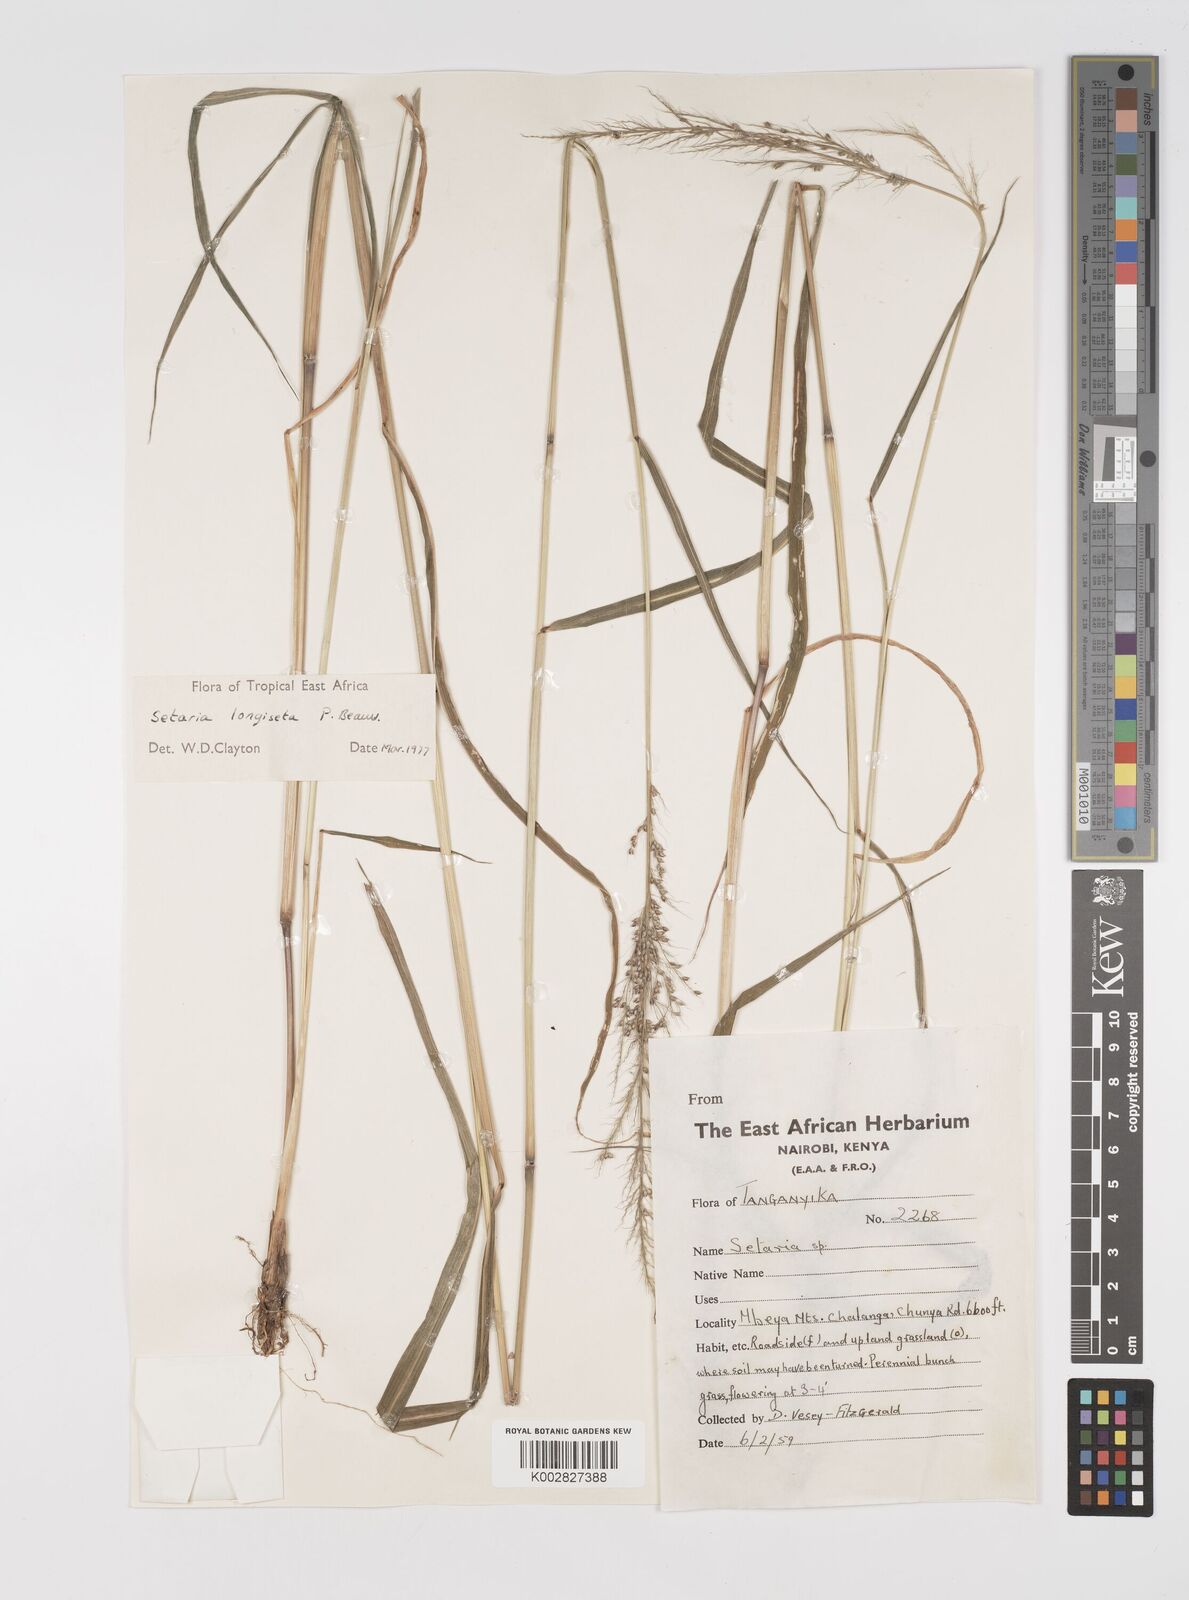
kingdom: Plantae
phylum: Tracheophyta
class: Liliopsida
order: Poales
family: Poaceae
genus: Setaria
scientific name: Setaria longiseta
